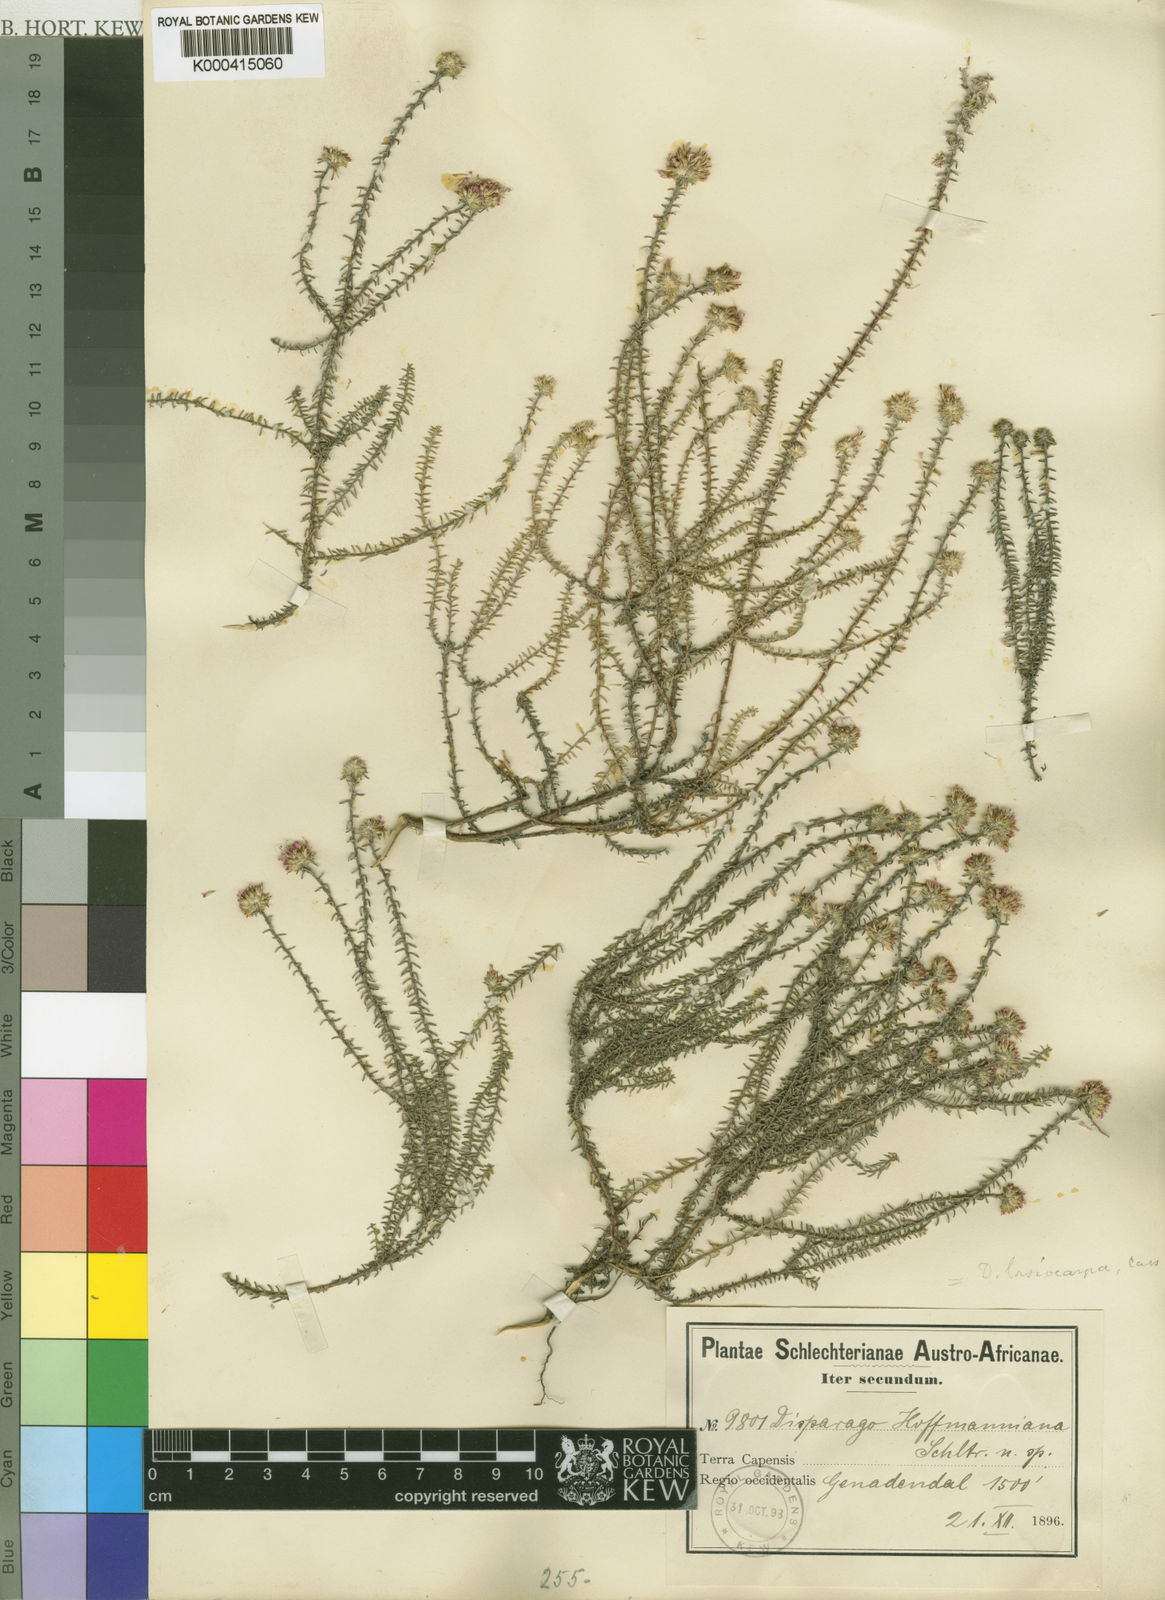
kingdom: Plantae
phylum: Tracheophyta
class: Magnoliopsida
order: Asterales
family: Asteraceae
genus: Disparago
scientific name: Disparago ericoides
